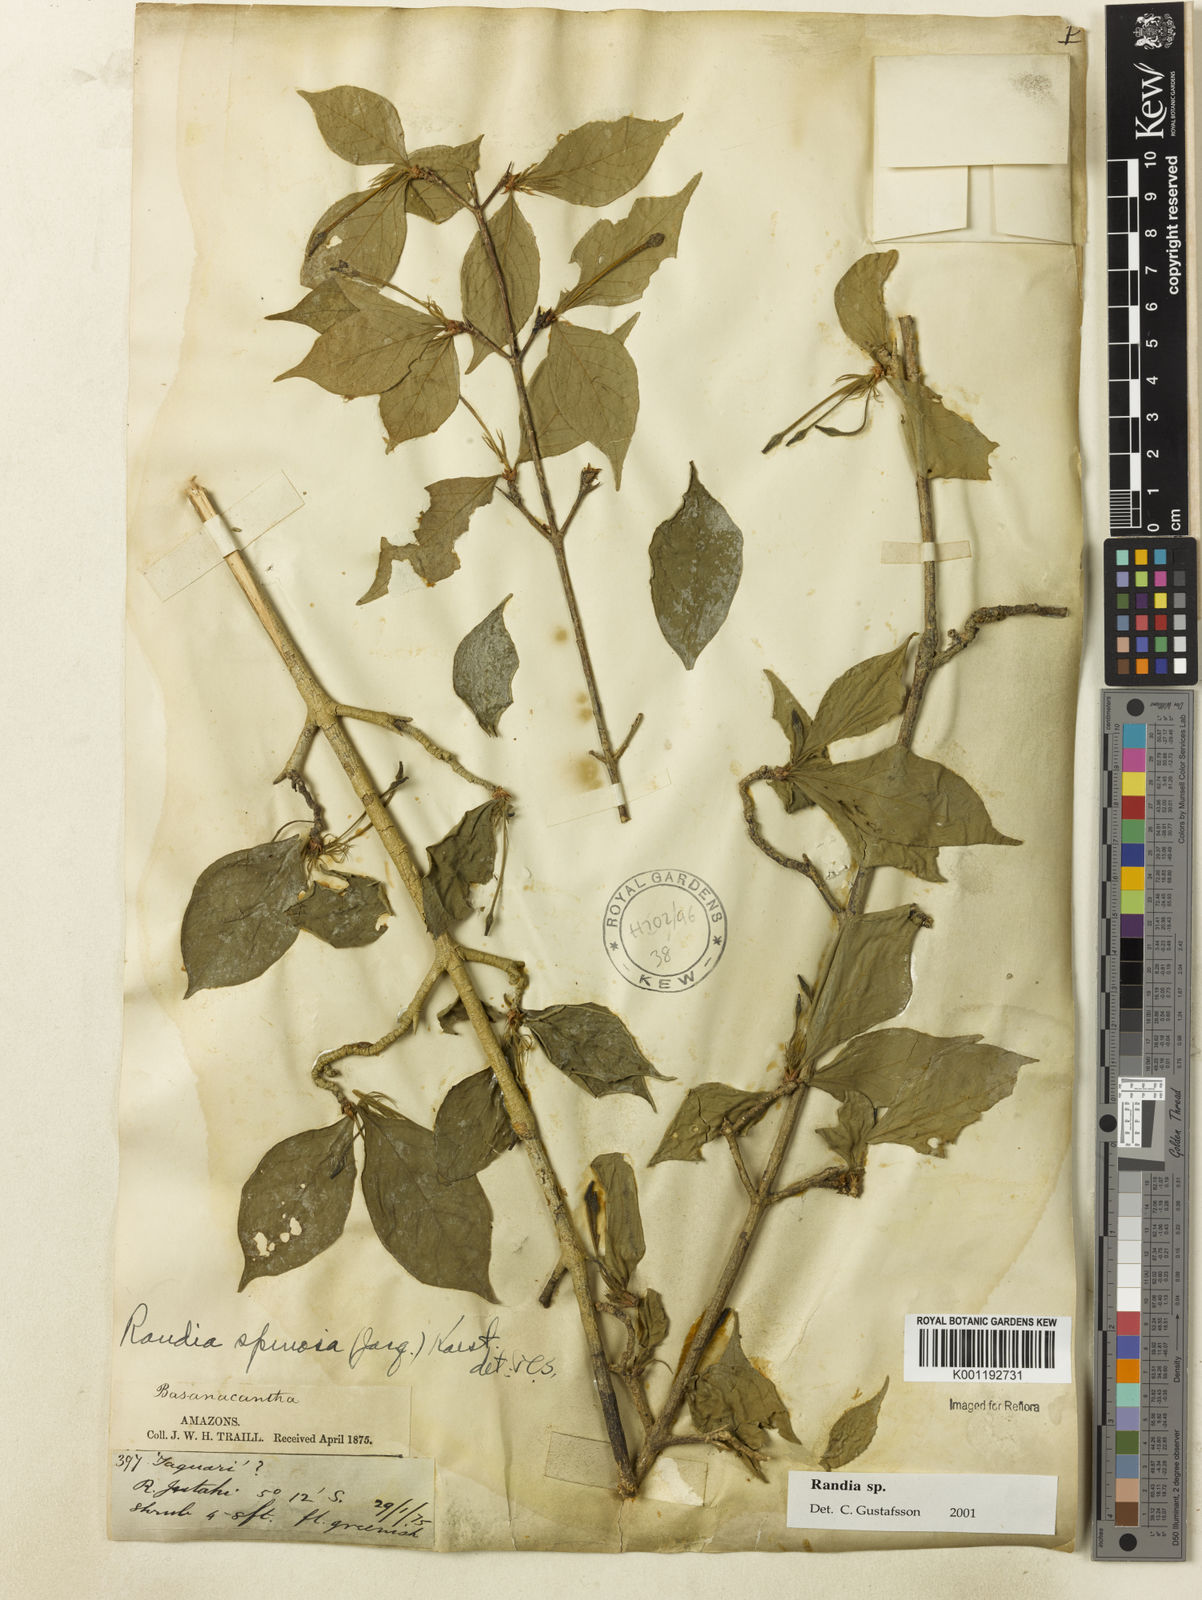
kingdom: Plantae
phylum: Tracheophyta
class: Magnoliopsida
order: Gentianales
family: Rubiaceae
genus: Randia
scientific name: Randia
